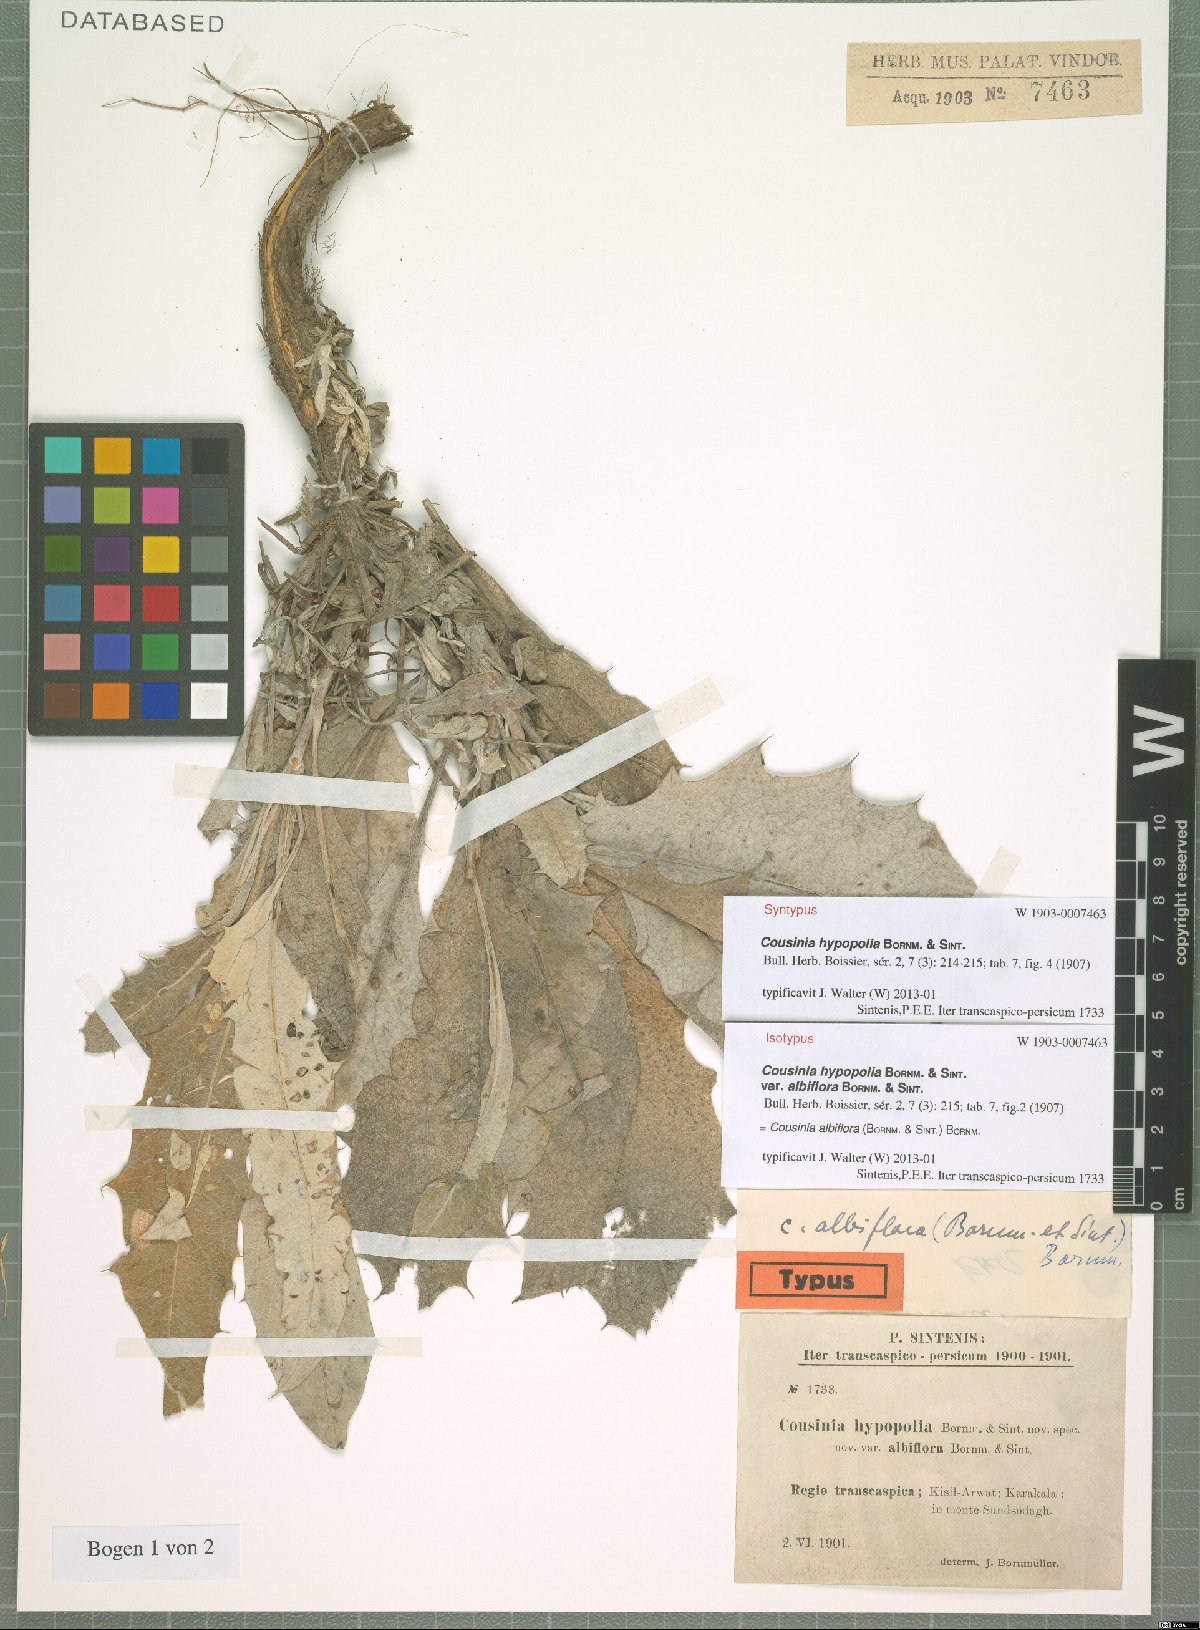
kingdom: Plantae
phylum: Tracheophyta
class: Magnoliopsida
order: Asterales
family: Asteraceae
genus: Cousinia
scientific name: Cousinia albiflora
